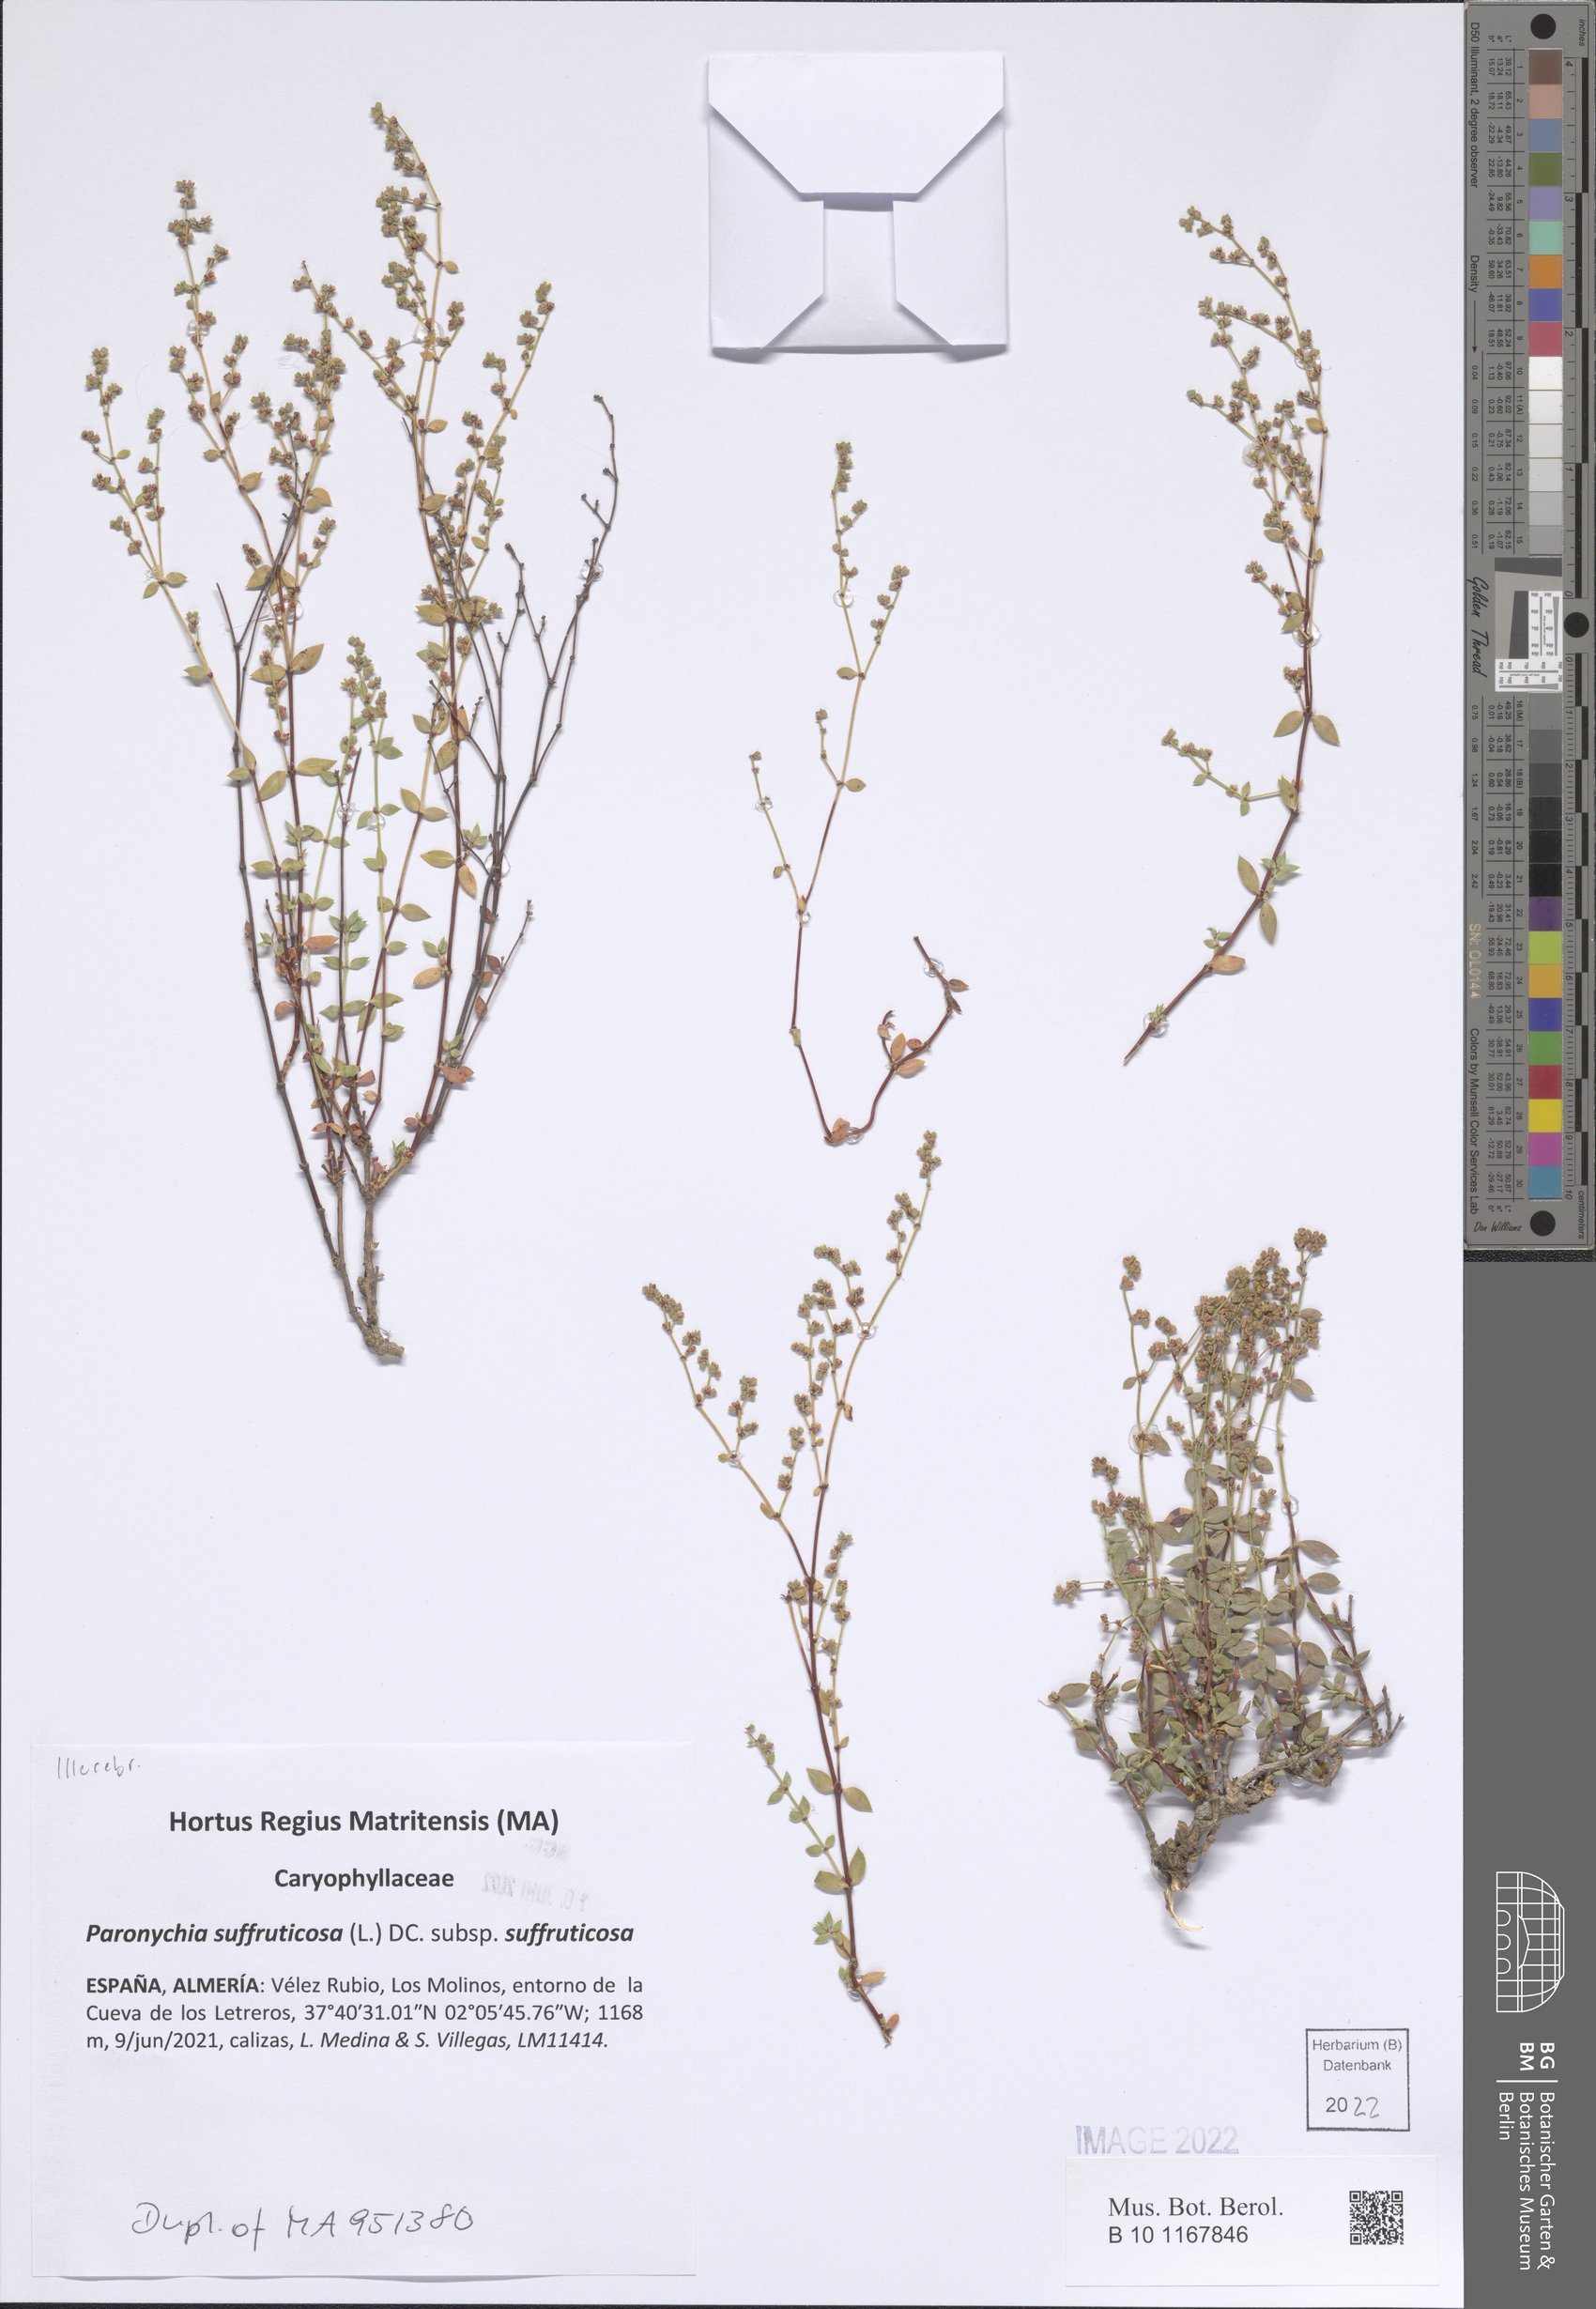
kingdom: Plantae
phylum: Tracheophyta
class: Magnoliopsida
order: Caryophyllales
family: Caryophyllaceae
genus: Paronychia
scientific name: Paronychia suffruticosa
